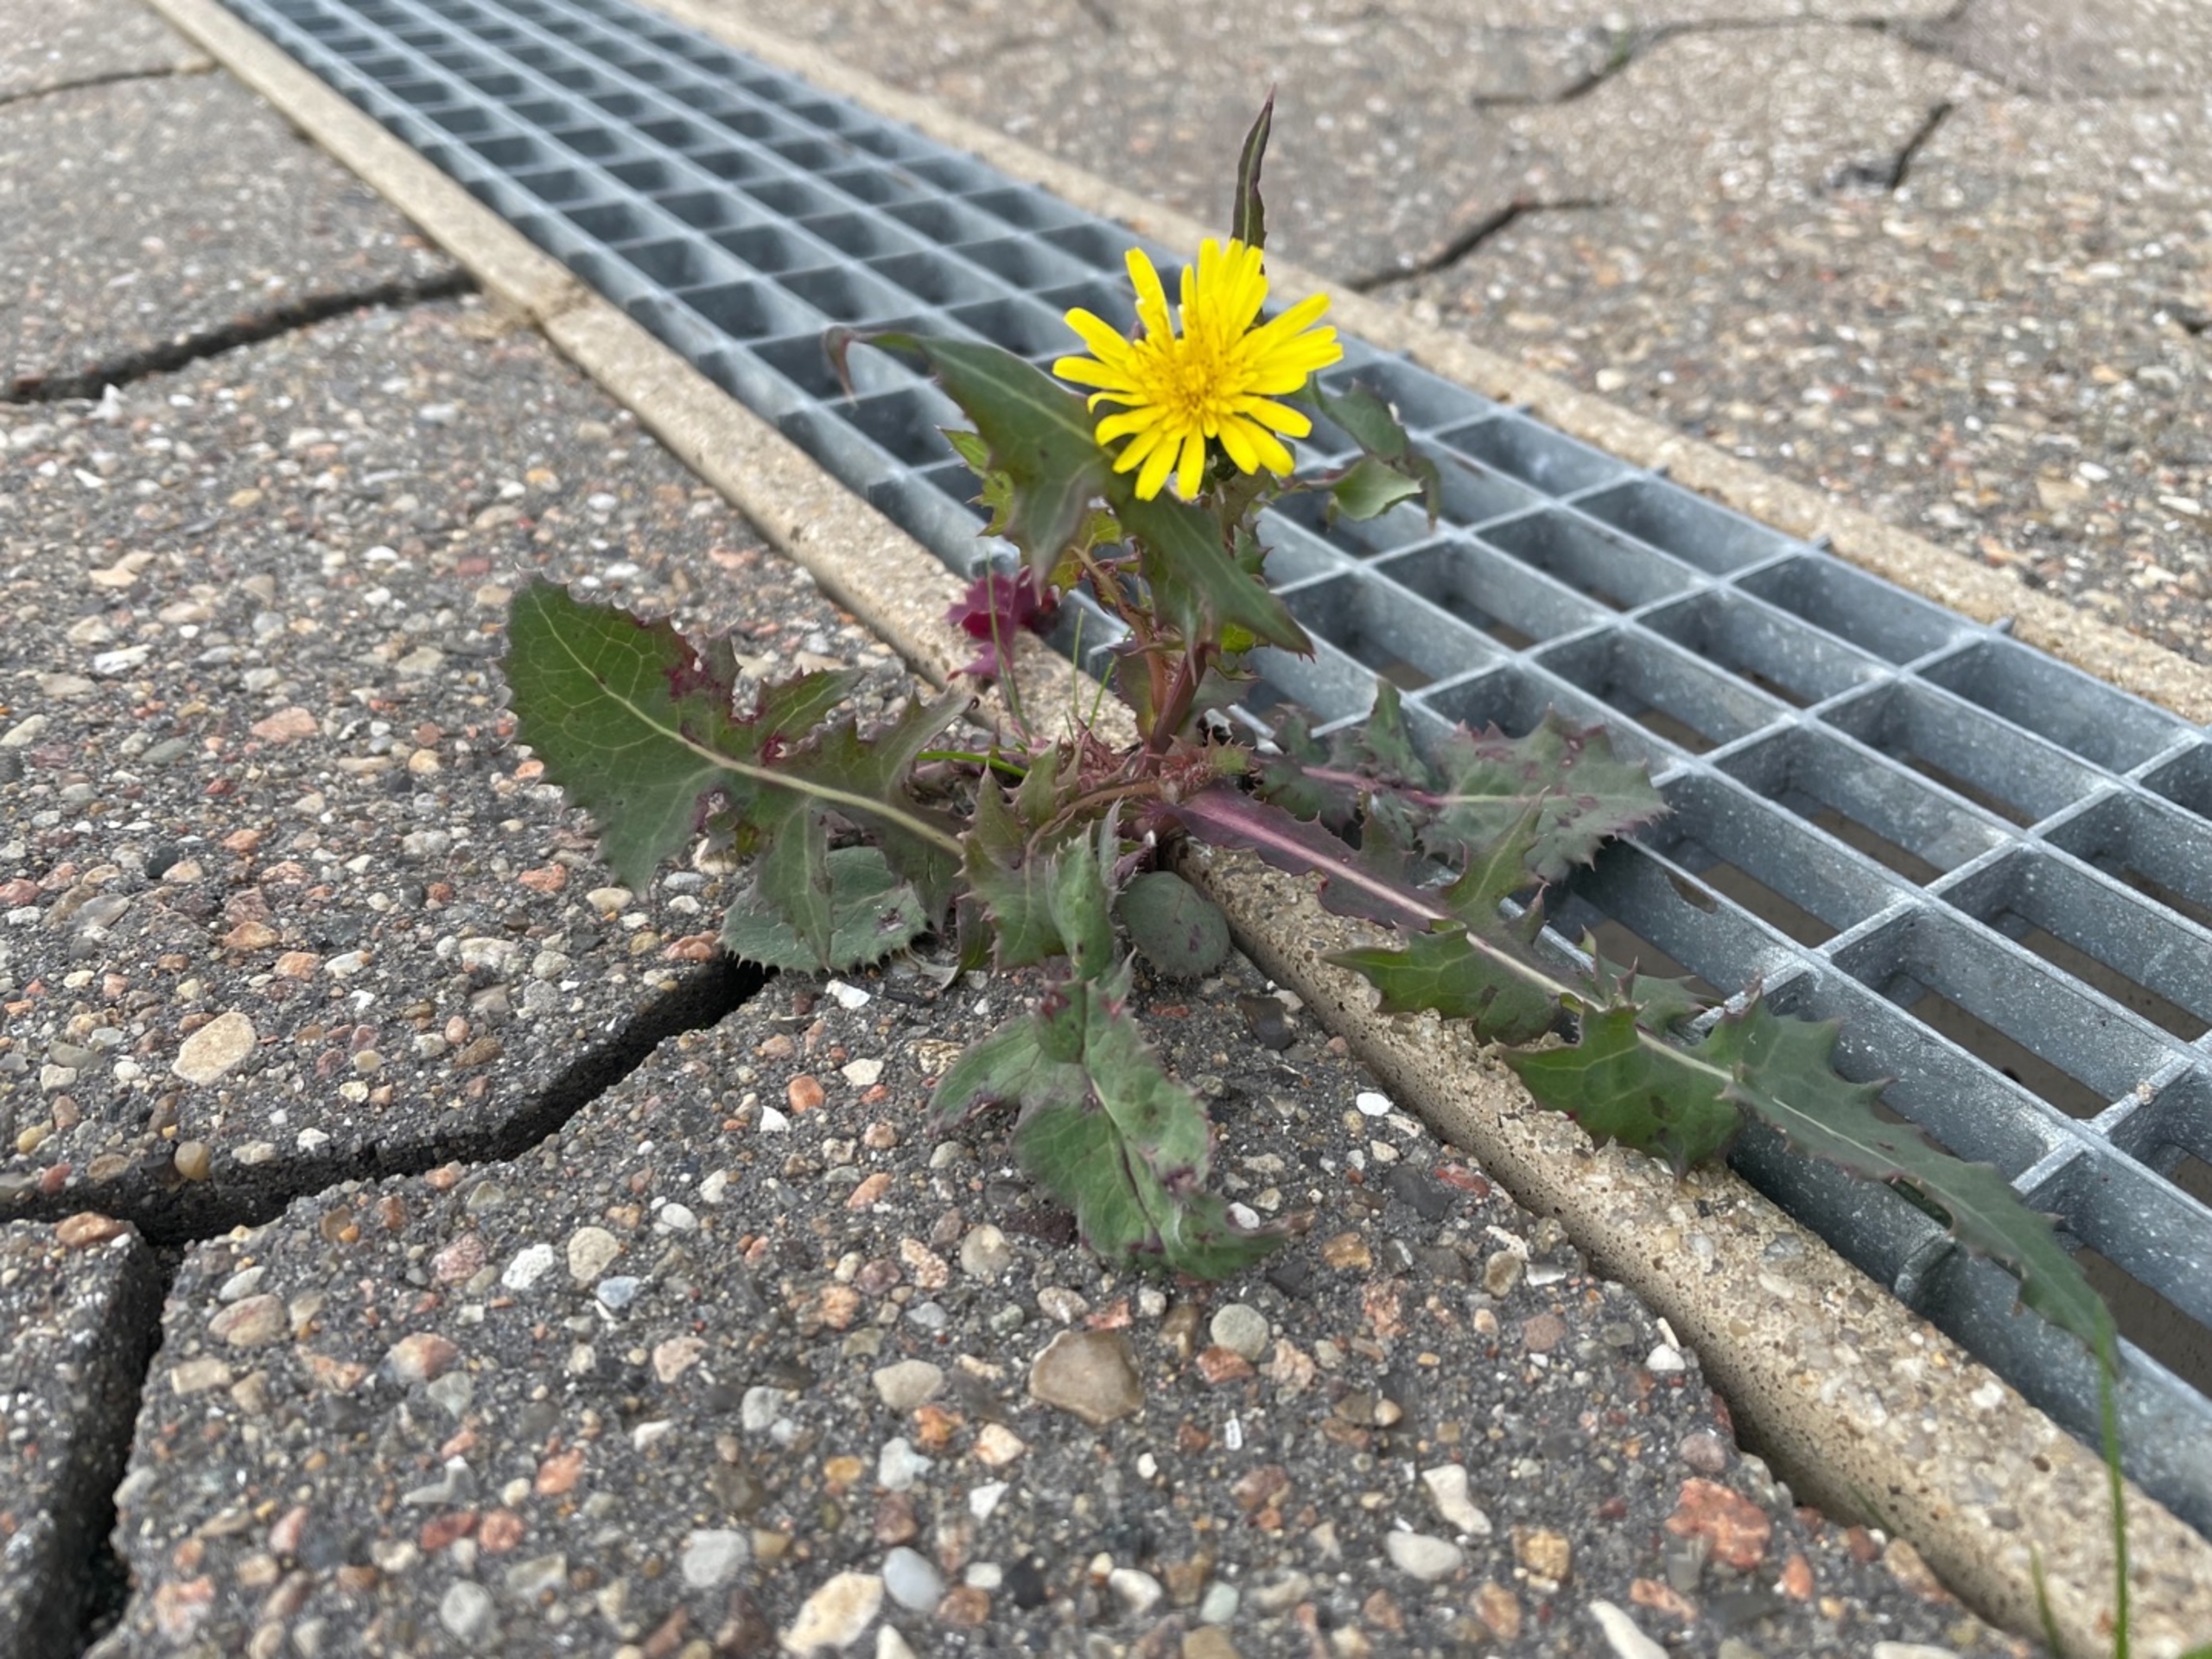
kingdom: Plantae
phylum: Tracheophyta
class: Magnoliopsida
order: Asterales
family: Asteraceae
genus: Sonchus
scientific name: Sonchus oleraceus
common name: Almindelig svinemælk
